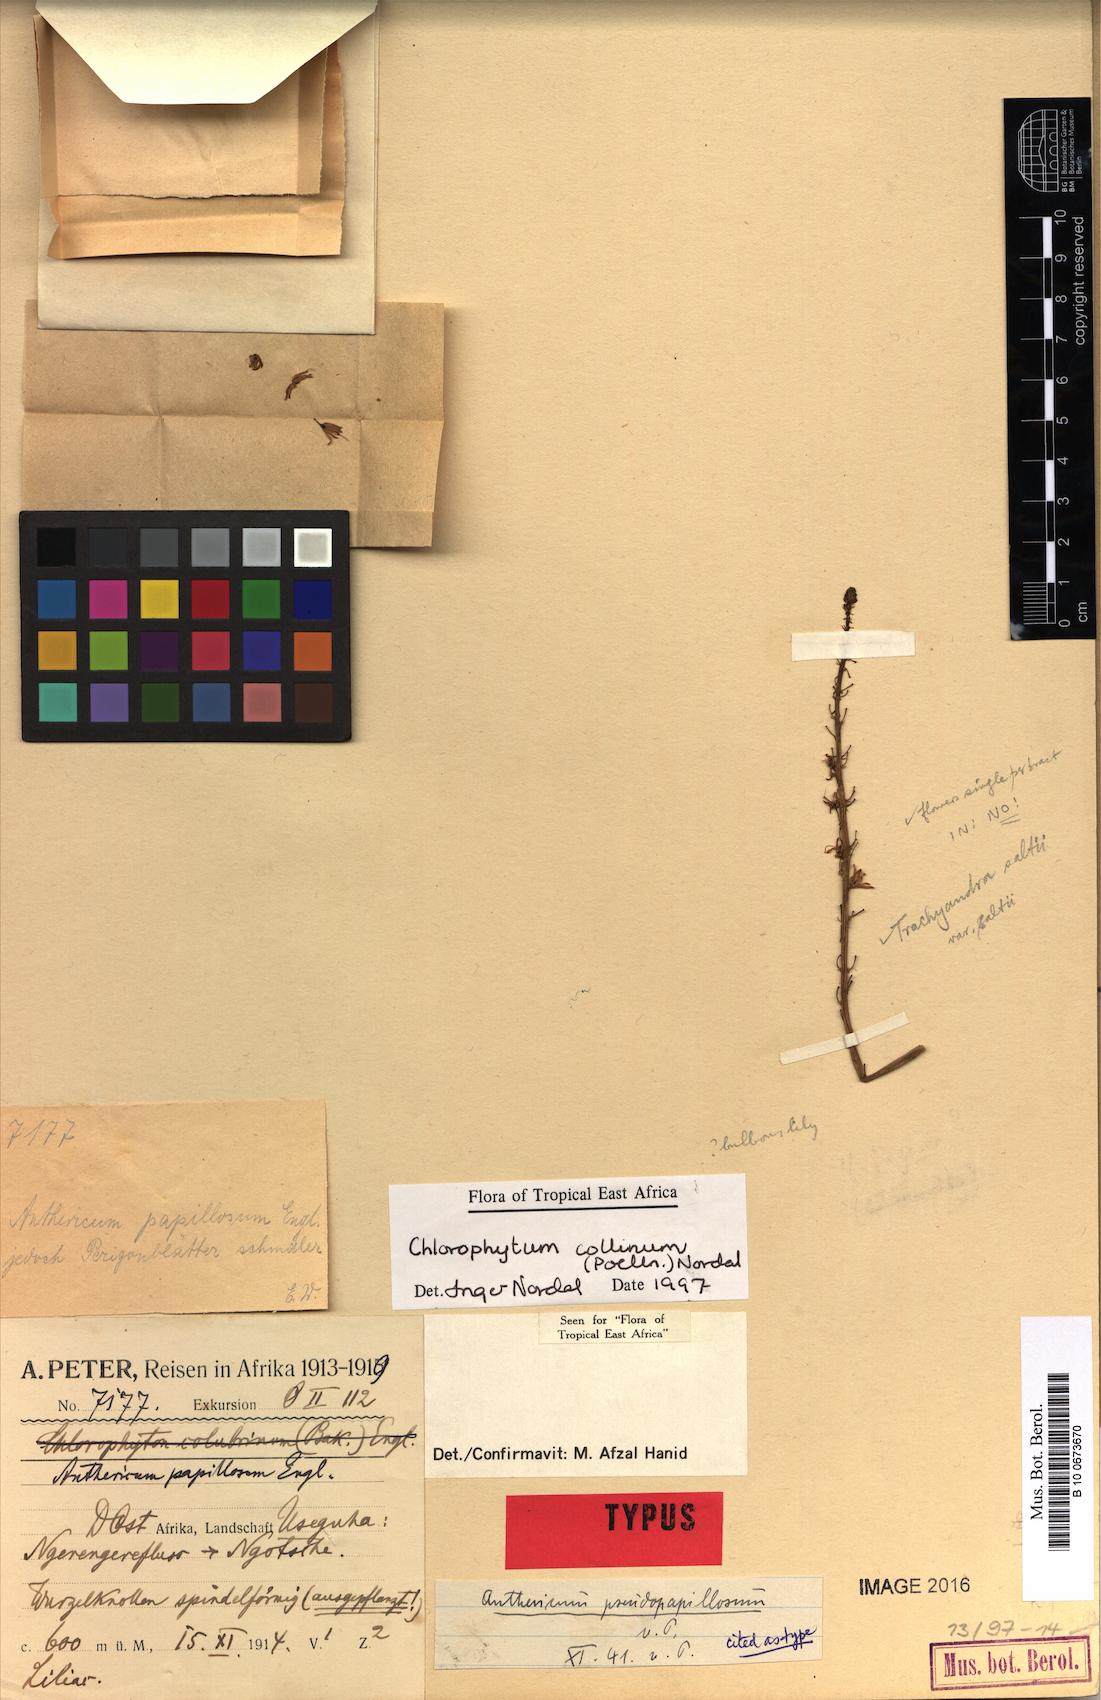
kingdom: Plantae
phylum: Tracheophyta
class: Liliopsida
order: Asparagales
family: Asparagaceae
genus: Chlorophytum
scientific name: Chlorophytum collinum
